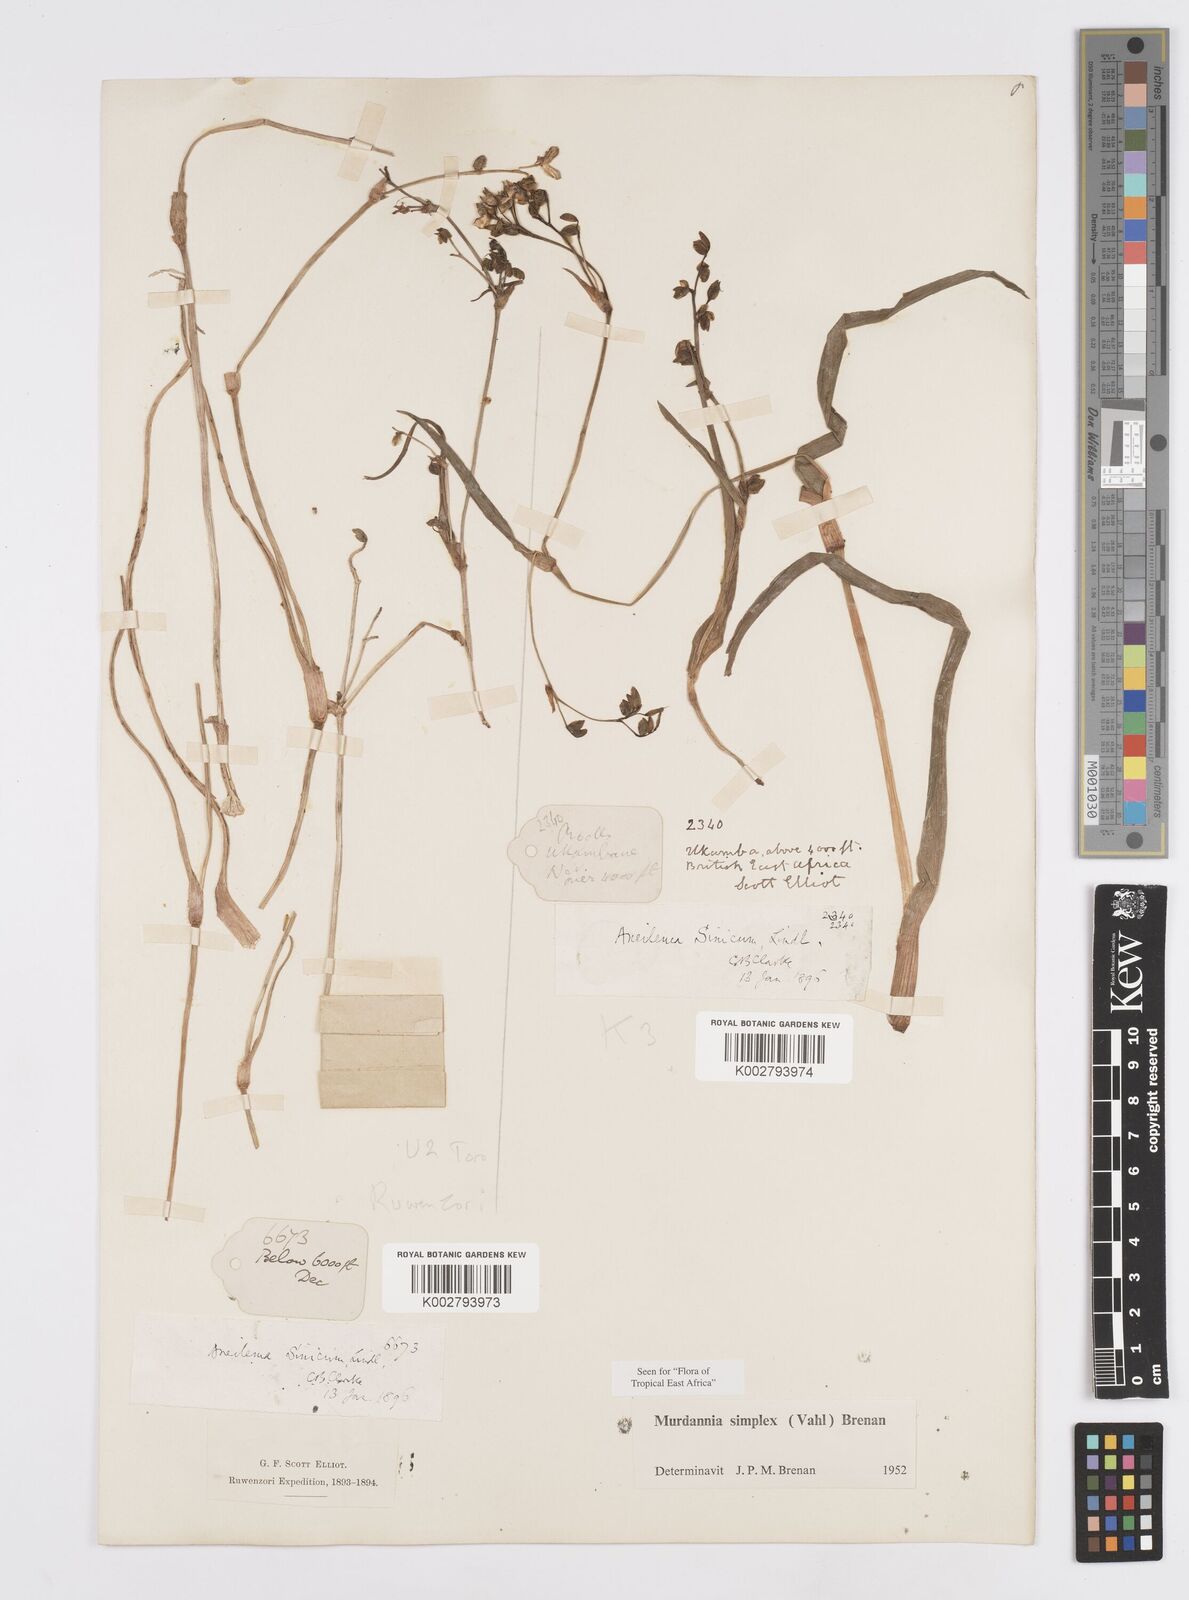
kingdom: Plantae
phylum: Tracheophyta
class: Liliopsida
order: Commelinales
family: Commelinaceae
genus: Murdannia
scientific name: Murdannia simplex
